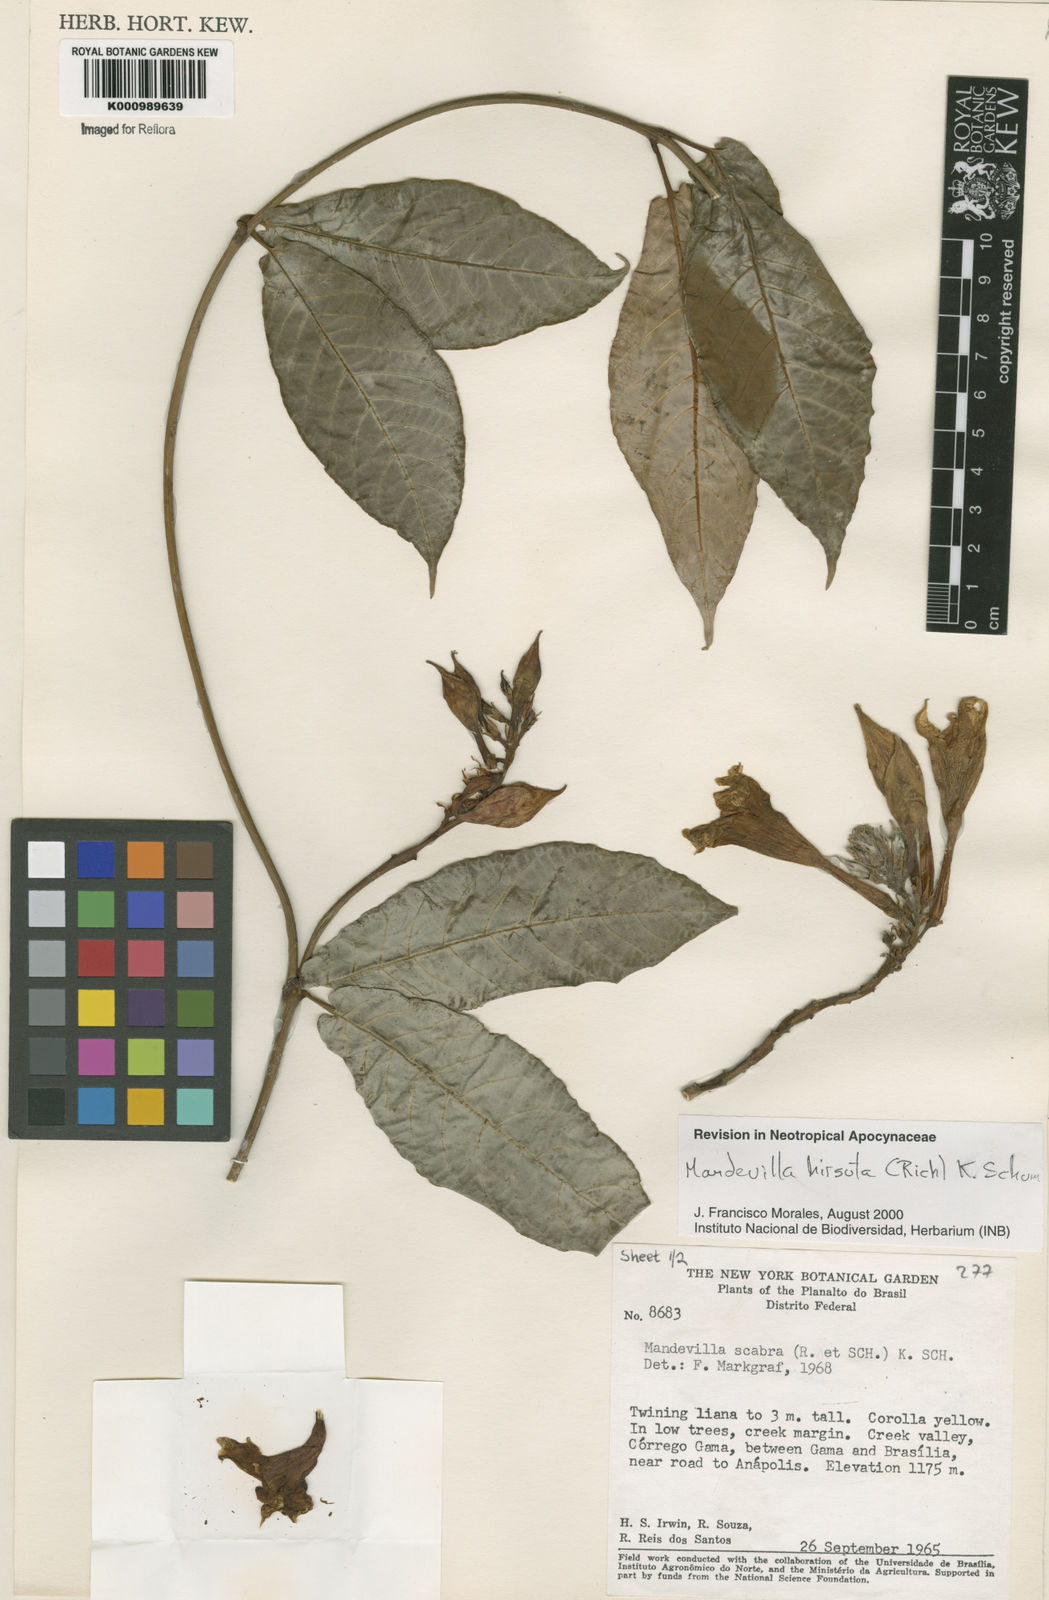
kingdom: Plantae
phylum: Tracheophyta
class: Magnoliopsida
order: Gentianales
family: Apocynaceae
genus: Mandevilla
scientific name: Mandevilla hirsuta
